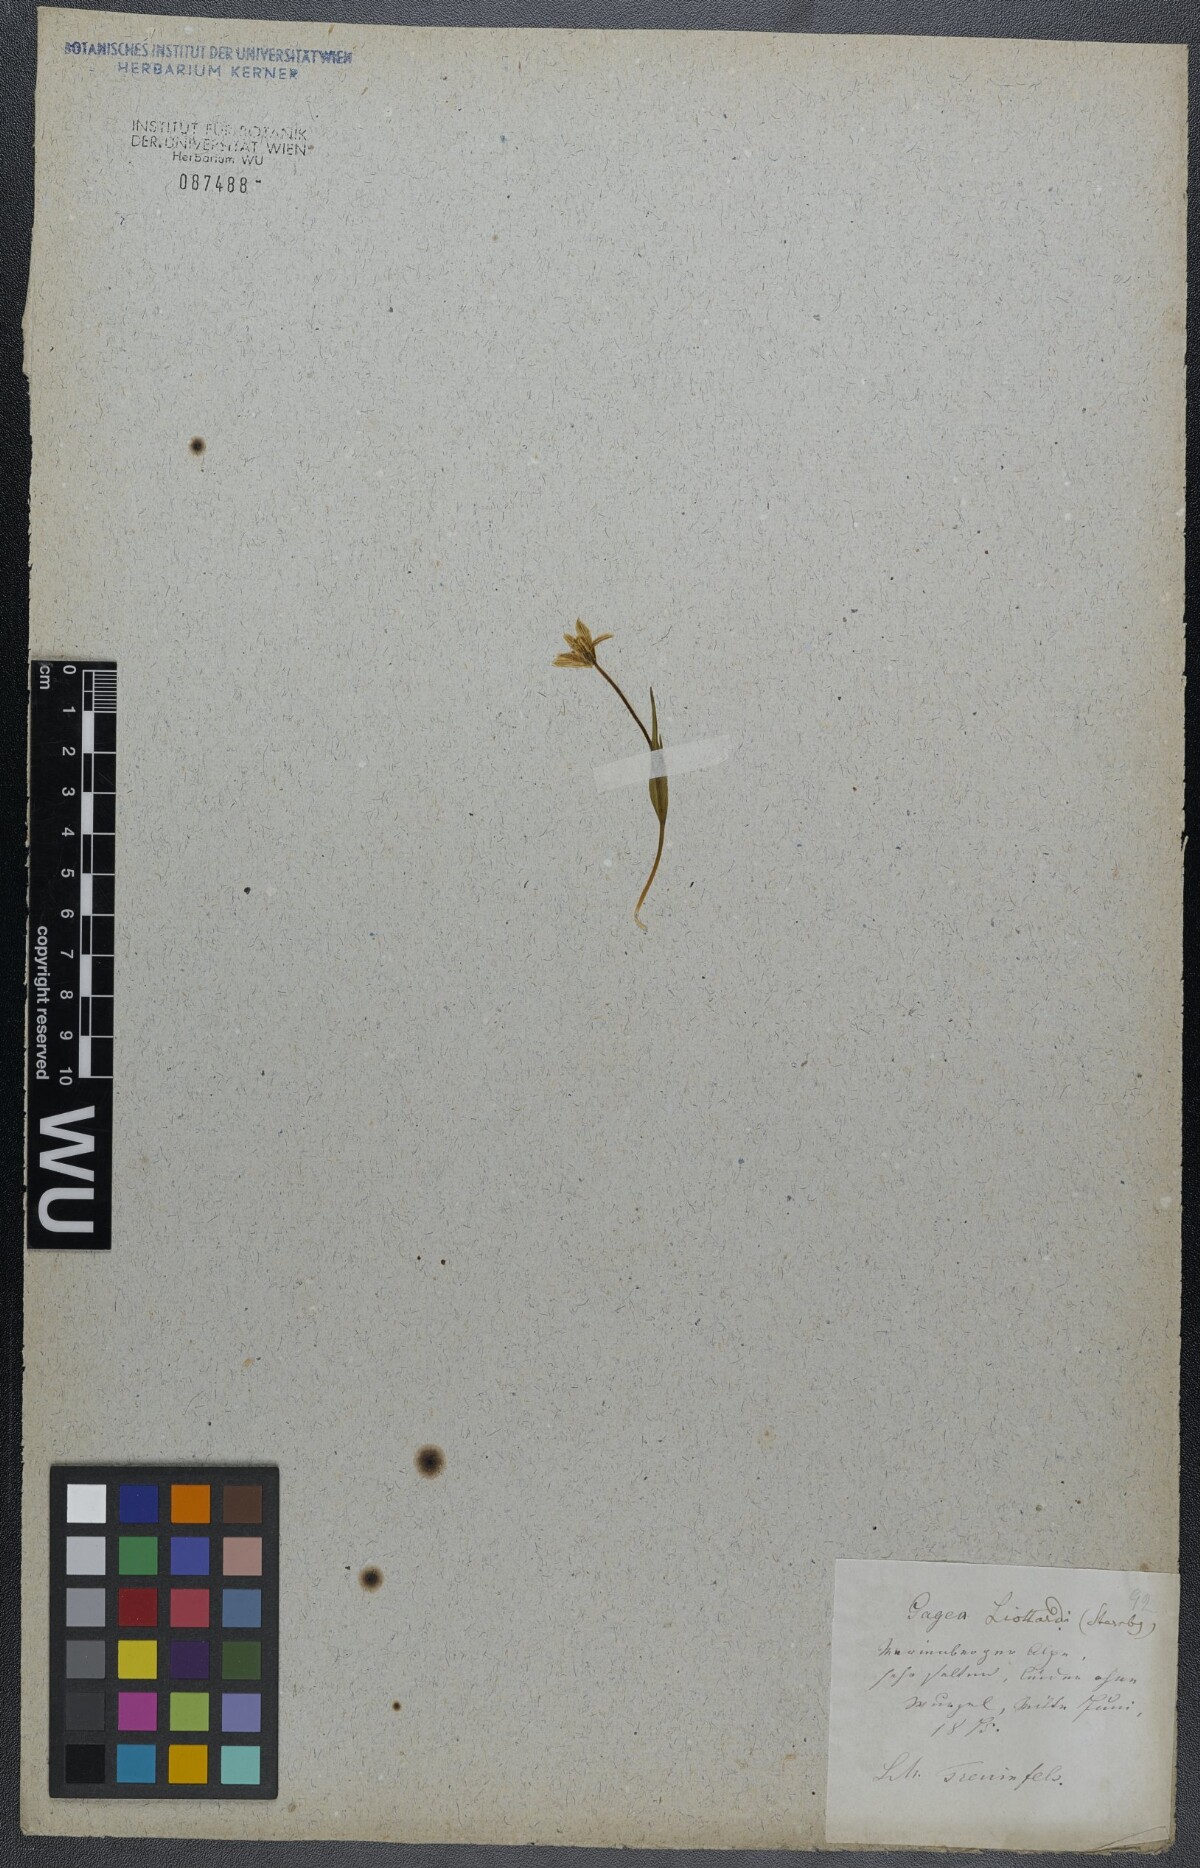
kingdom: Plantae
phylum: Tracheophyta
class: Liliopsida
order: Liliales
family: Liliaceae
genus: Gagea
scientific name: Gagea fragifera
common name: Lily
